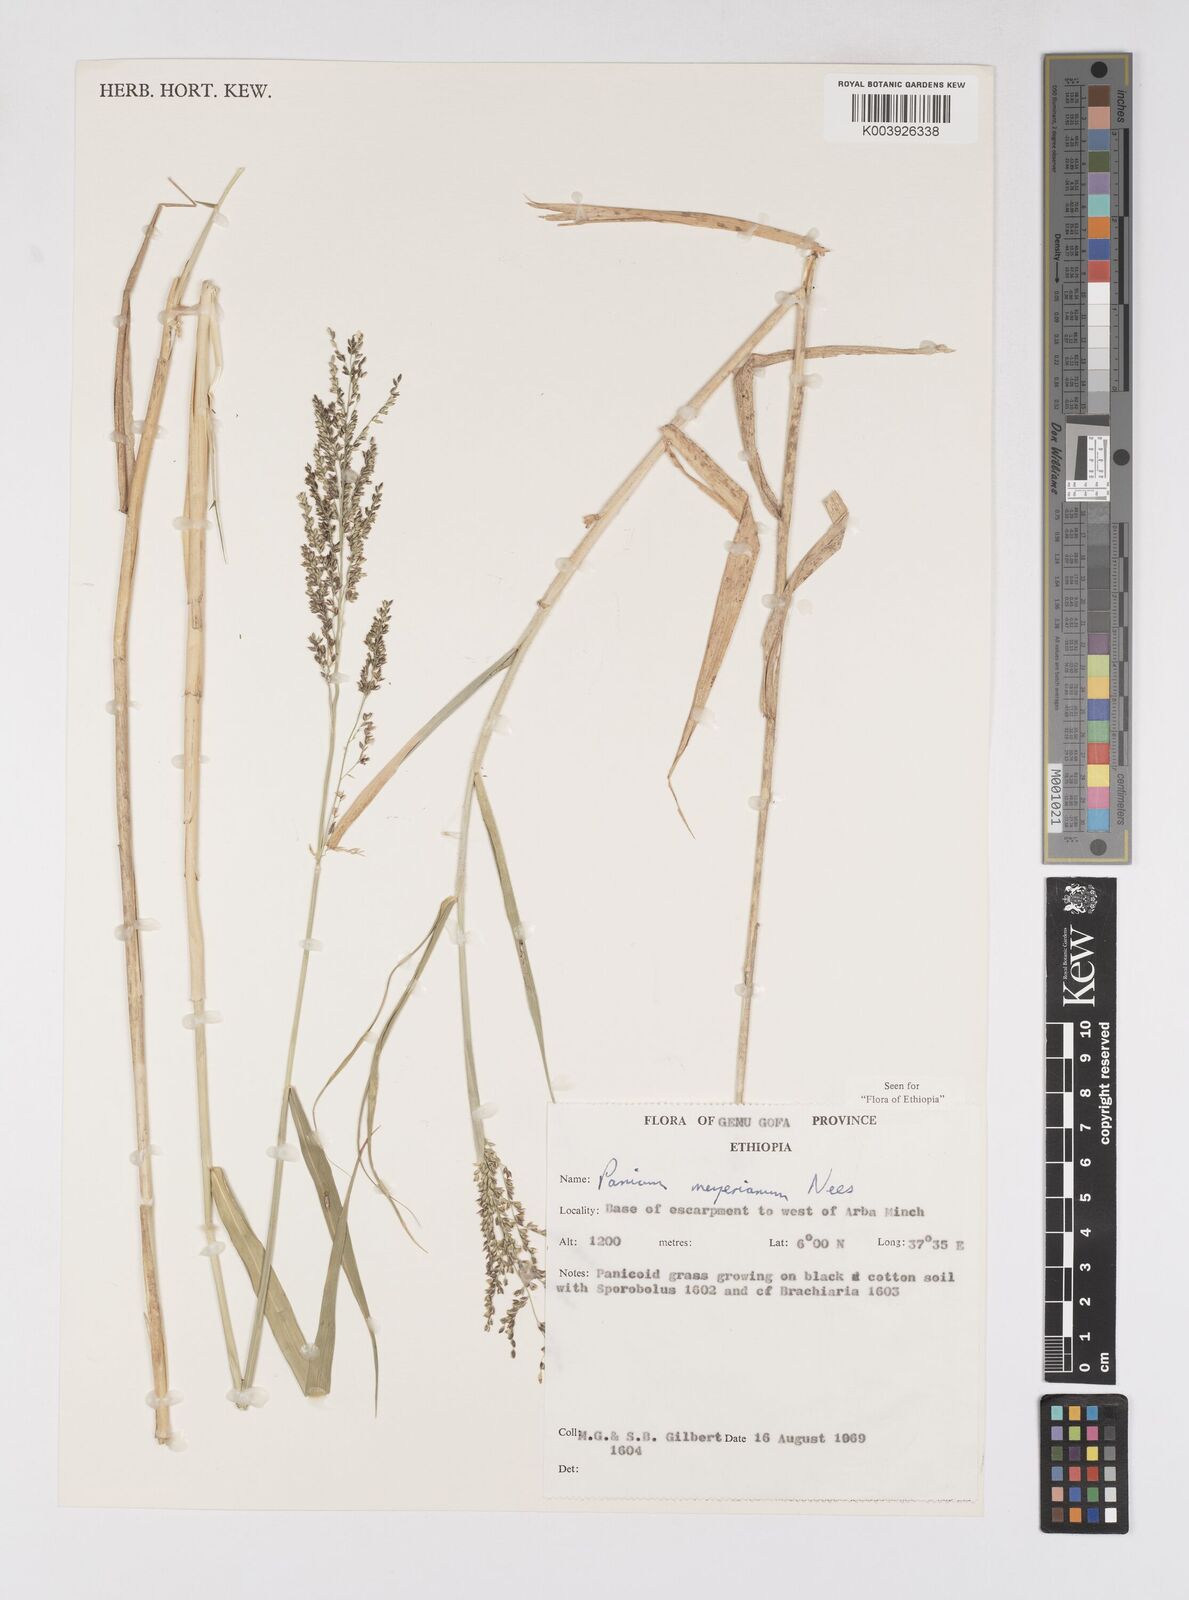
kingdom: Plantae
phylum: Tracheophyta
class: Liliopsida
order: Poales
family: Poaceae
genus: Eriochloa
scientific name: Eriochloa meyeriana
